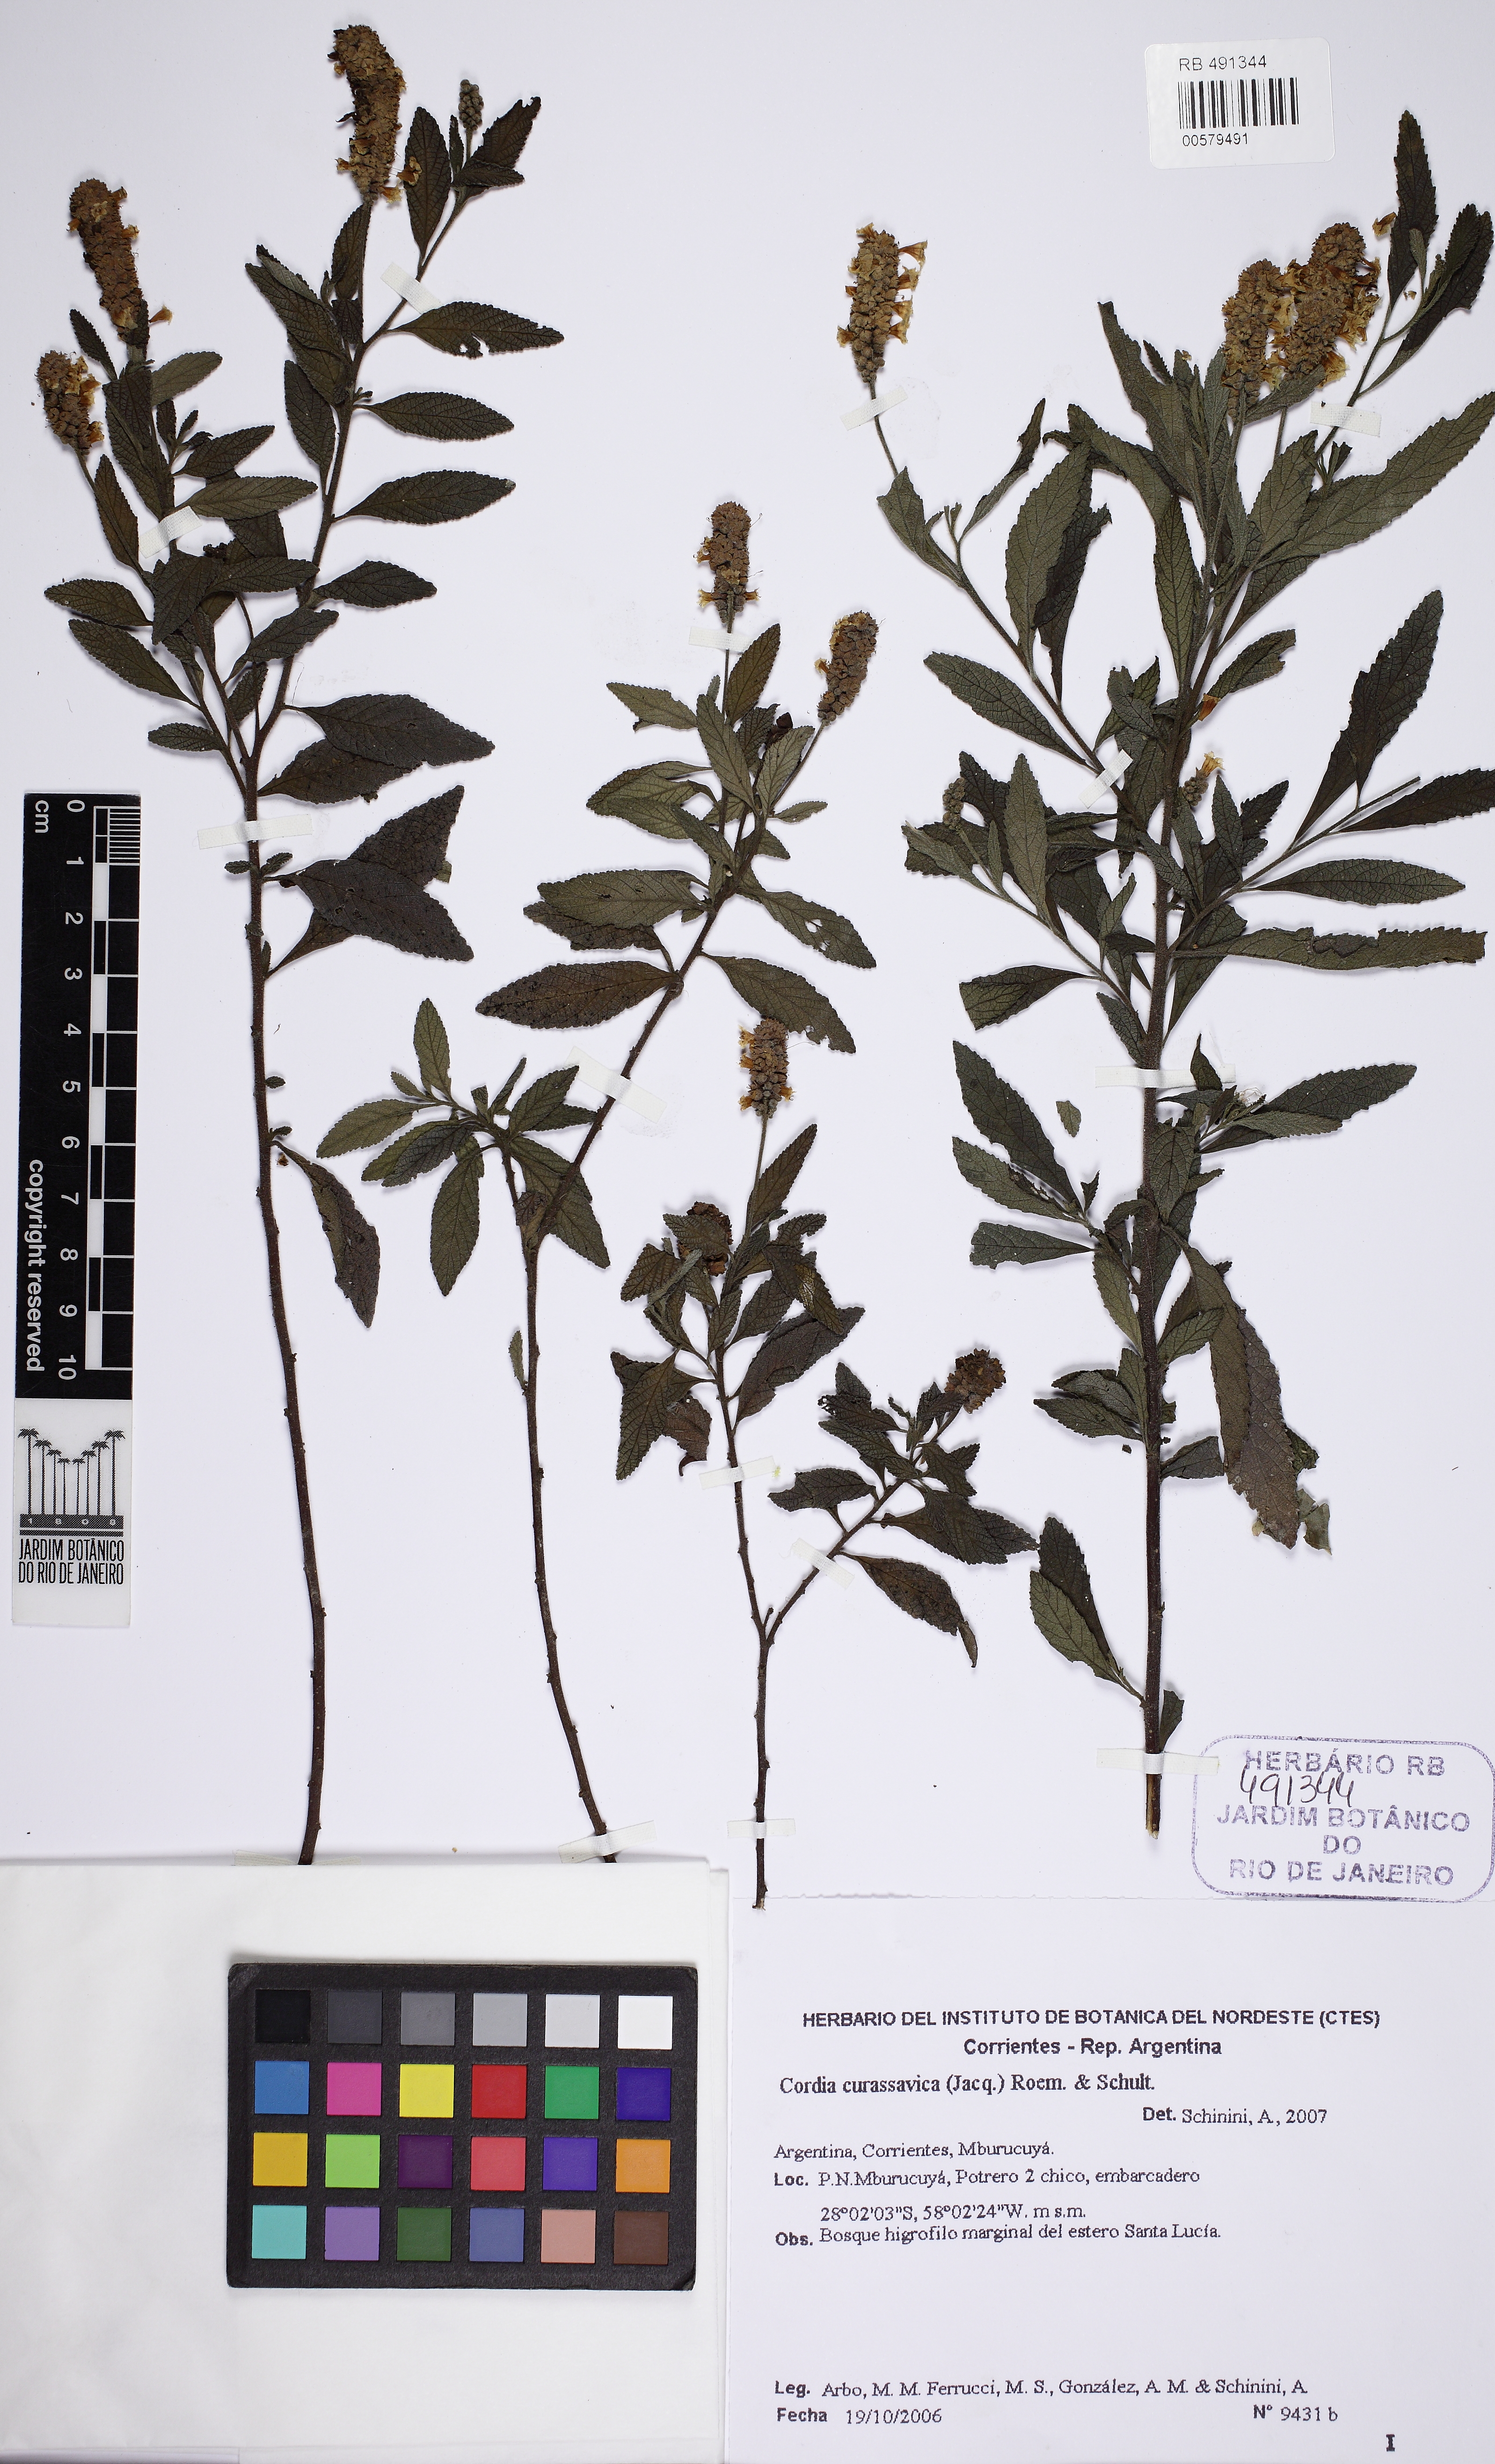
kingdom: Plantae
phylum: Tracheophyta
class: Magnoliopsida
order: Boraginales
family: Cordiaceae
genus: Varronia
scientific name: Varronia curassavica
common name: Black sage
